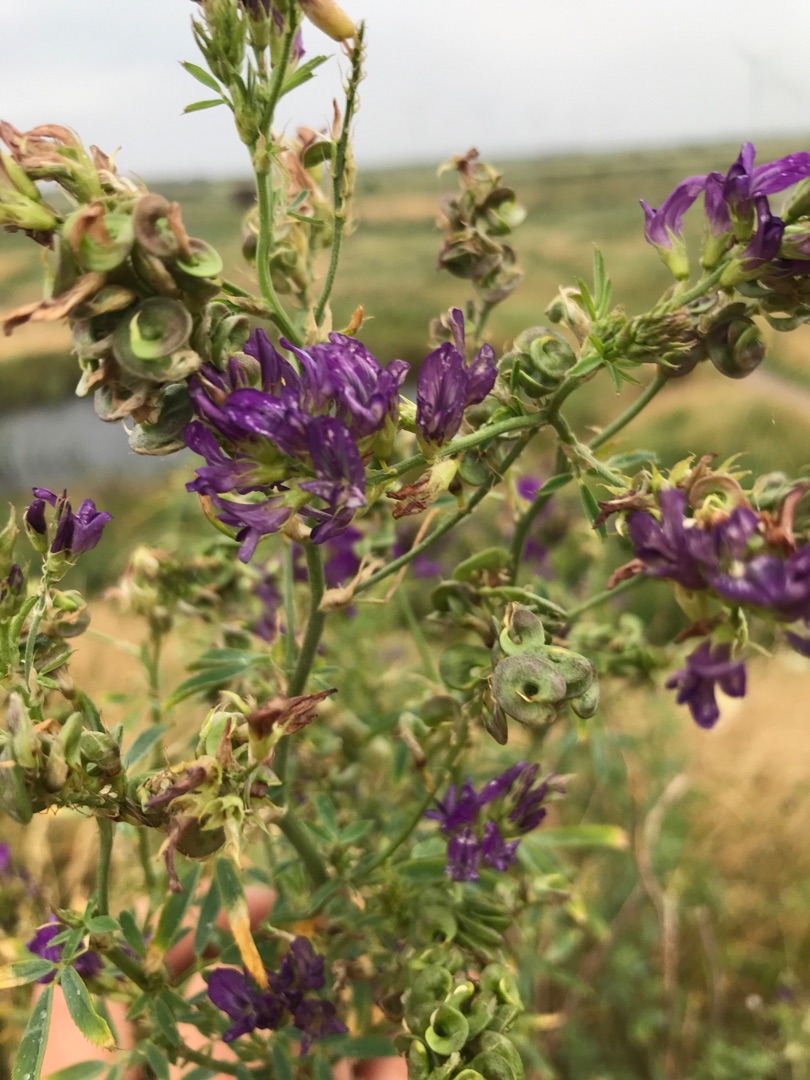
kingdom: Plantae
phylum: Tracheophyta
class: Magnoliopsida
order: Fabales
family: Fabaceae
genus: Medicago
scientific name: Medicago sativa
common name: Lucerne
